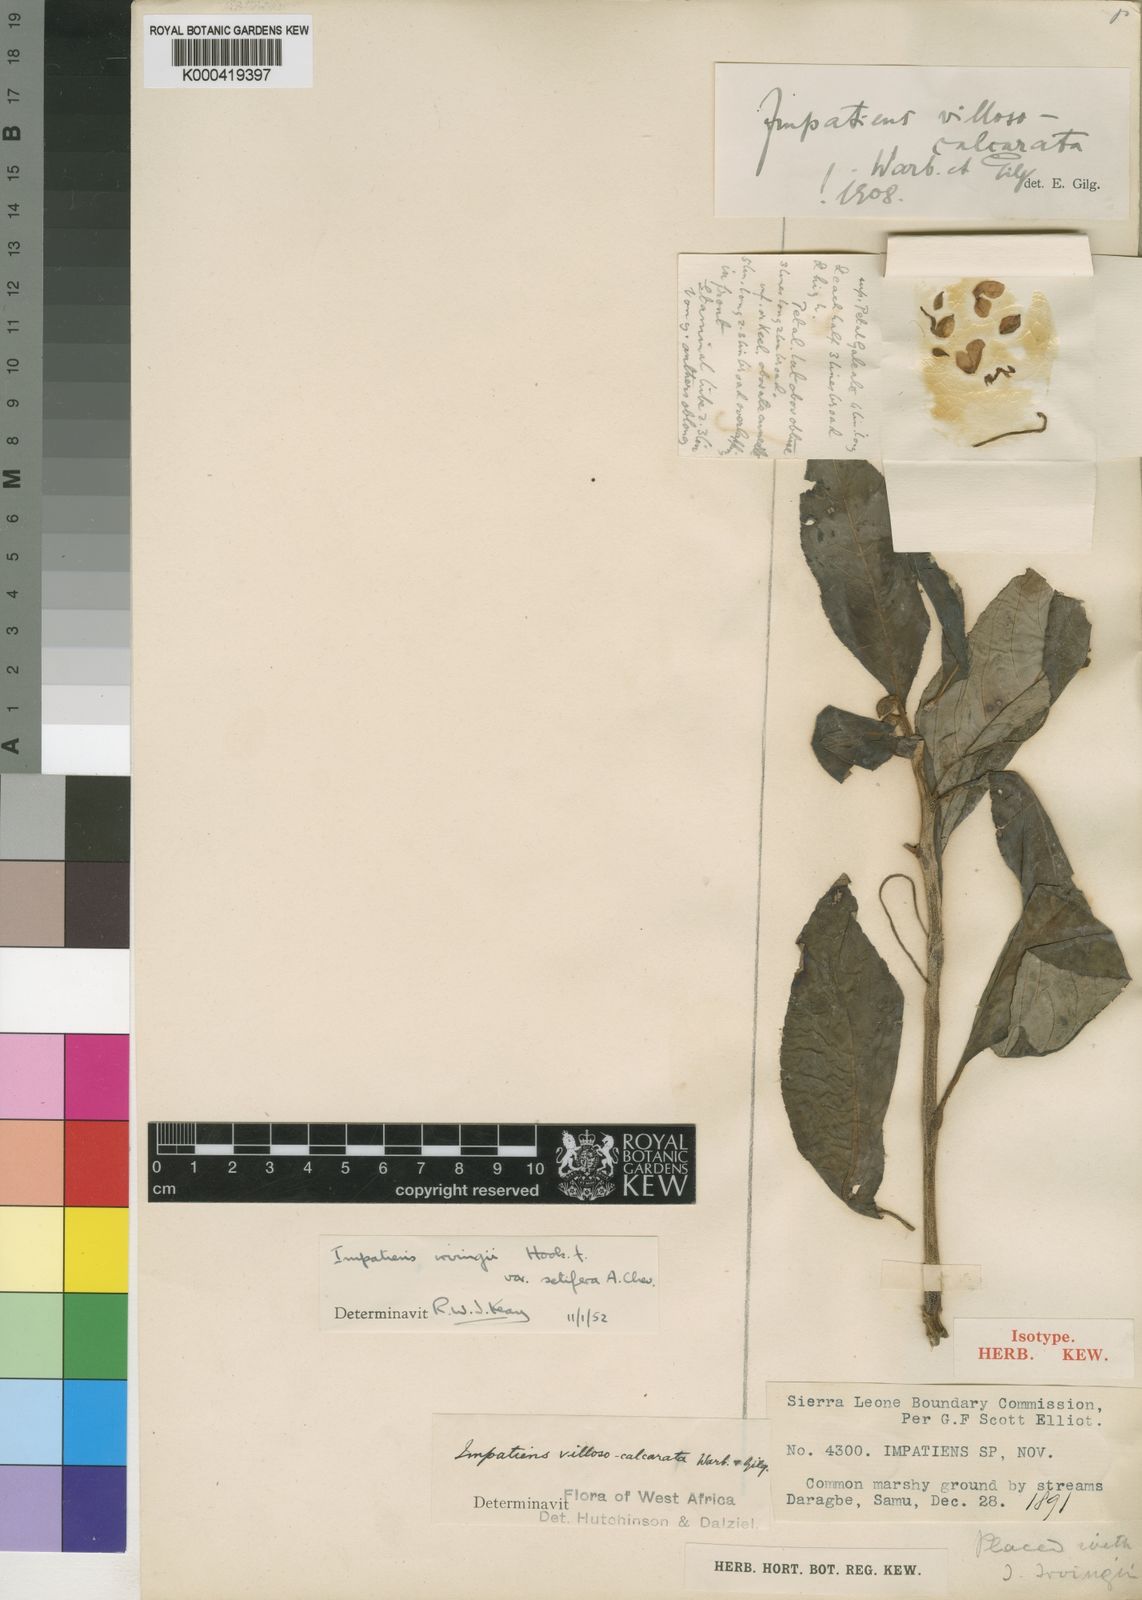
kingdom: Plantae
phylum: Tracheophyta
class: Magnoliopsida
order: Ericales
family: Balsaminaceae
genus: Impatiens
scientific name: Impatiens irvingii
